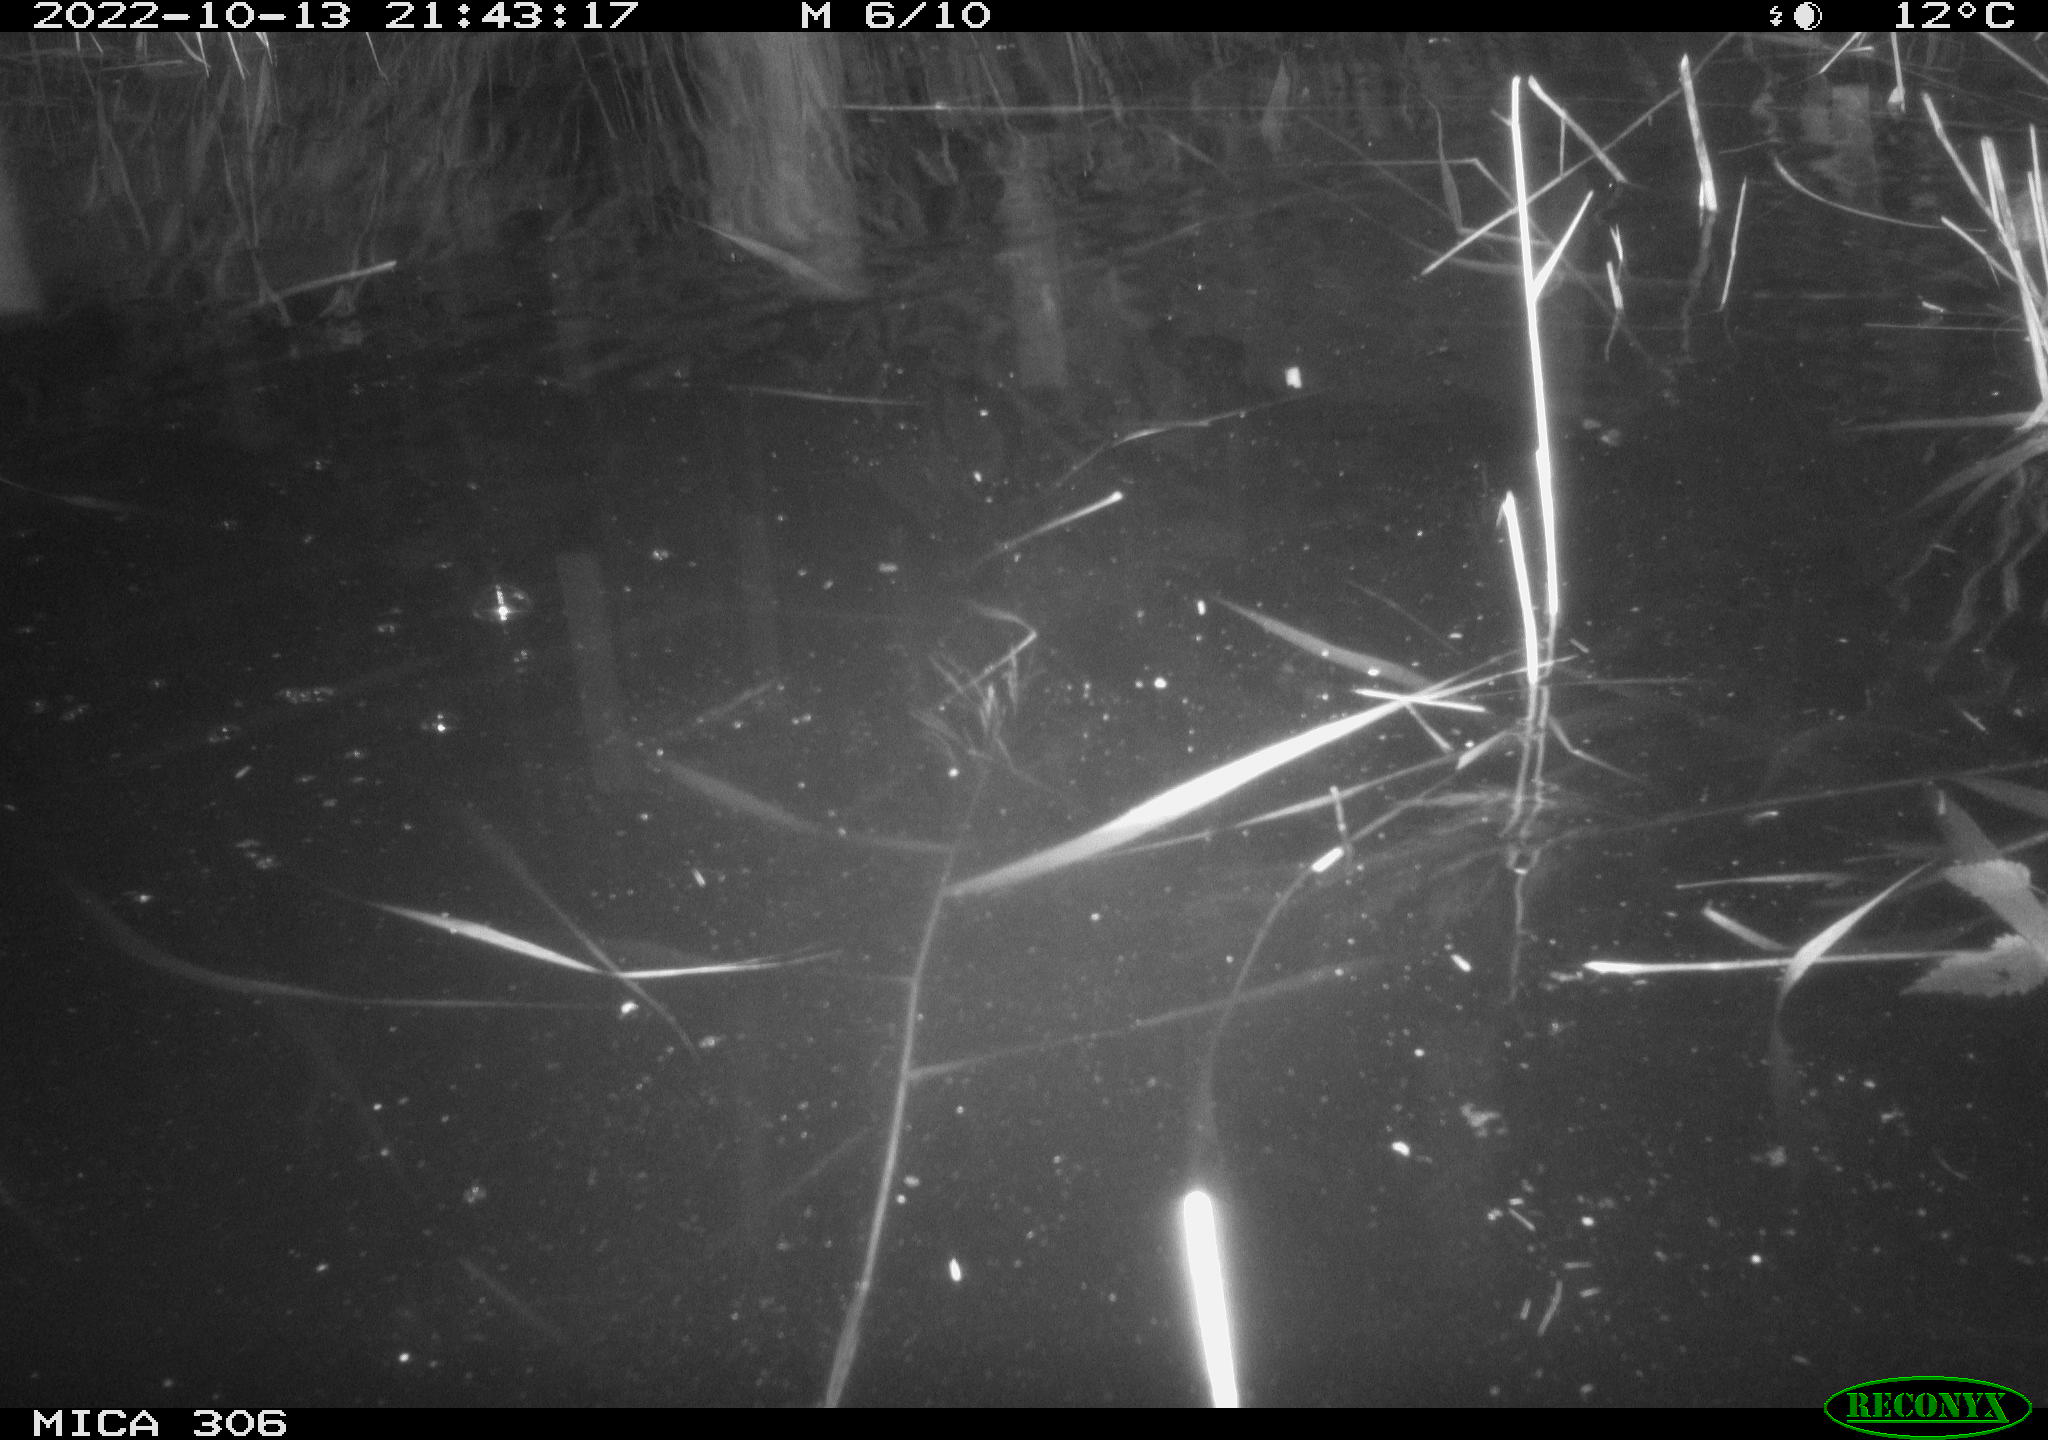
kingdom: Animalia
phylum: Chordata
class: Mammalia
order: Rodentia
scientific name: Rodentia
